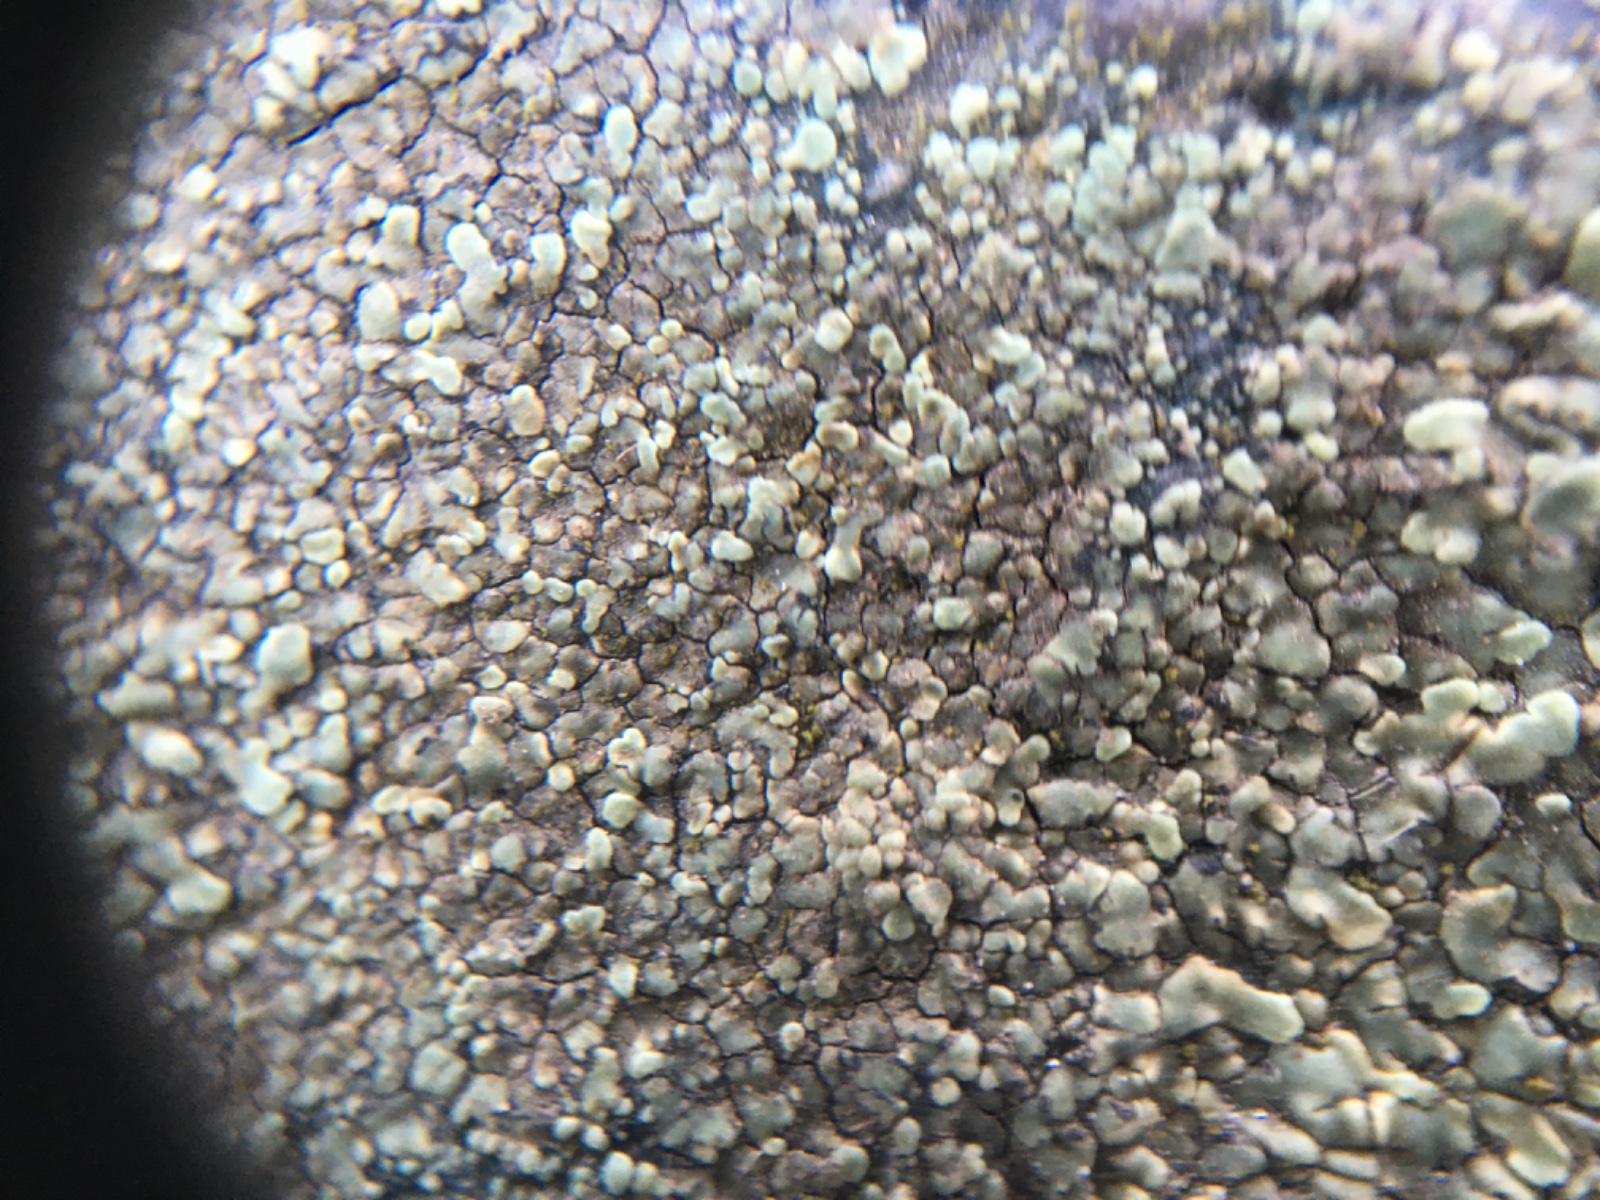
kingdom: Fungi
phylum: Ascomycota
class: Lecanoromycetes
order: Lecanorales
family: Lecanoraceae
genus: Protoparmeliopsis
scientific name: Protoparmeliopsis muralis
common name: randfliget kantskivelav
